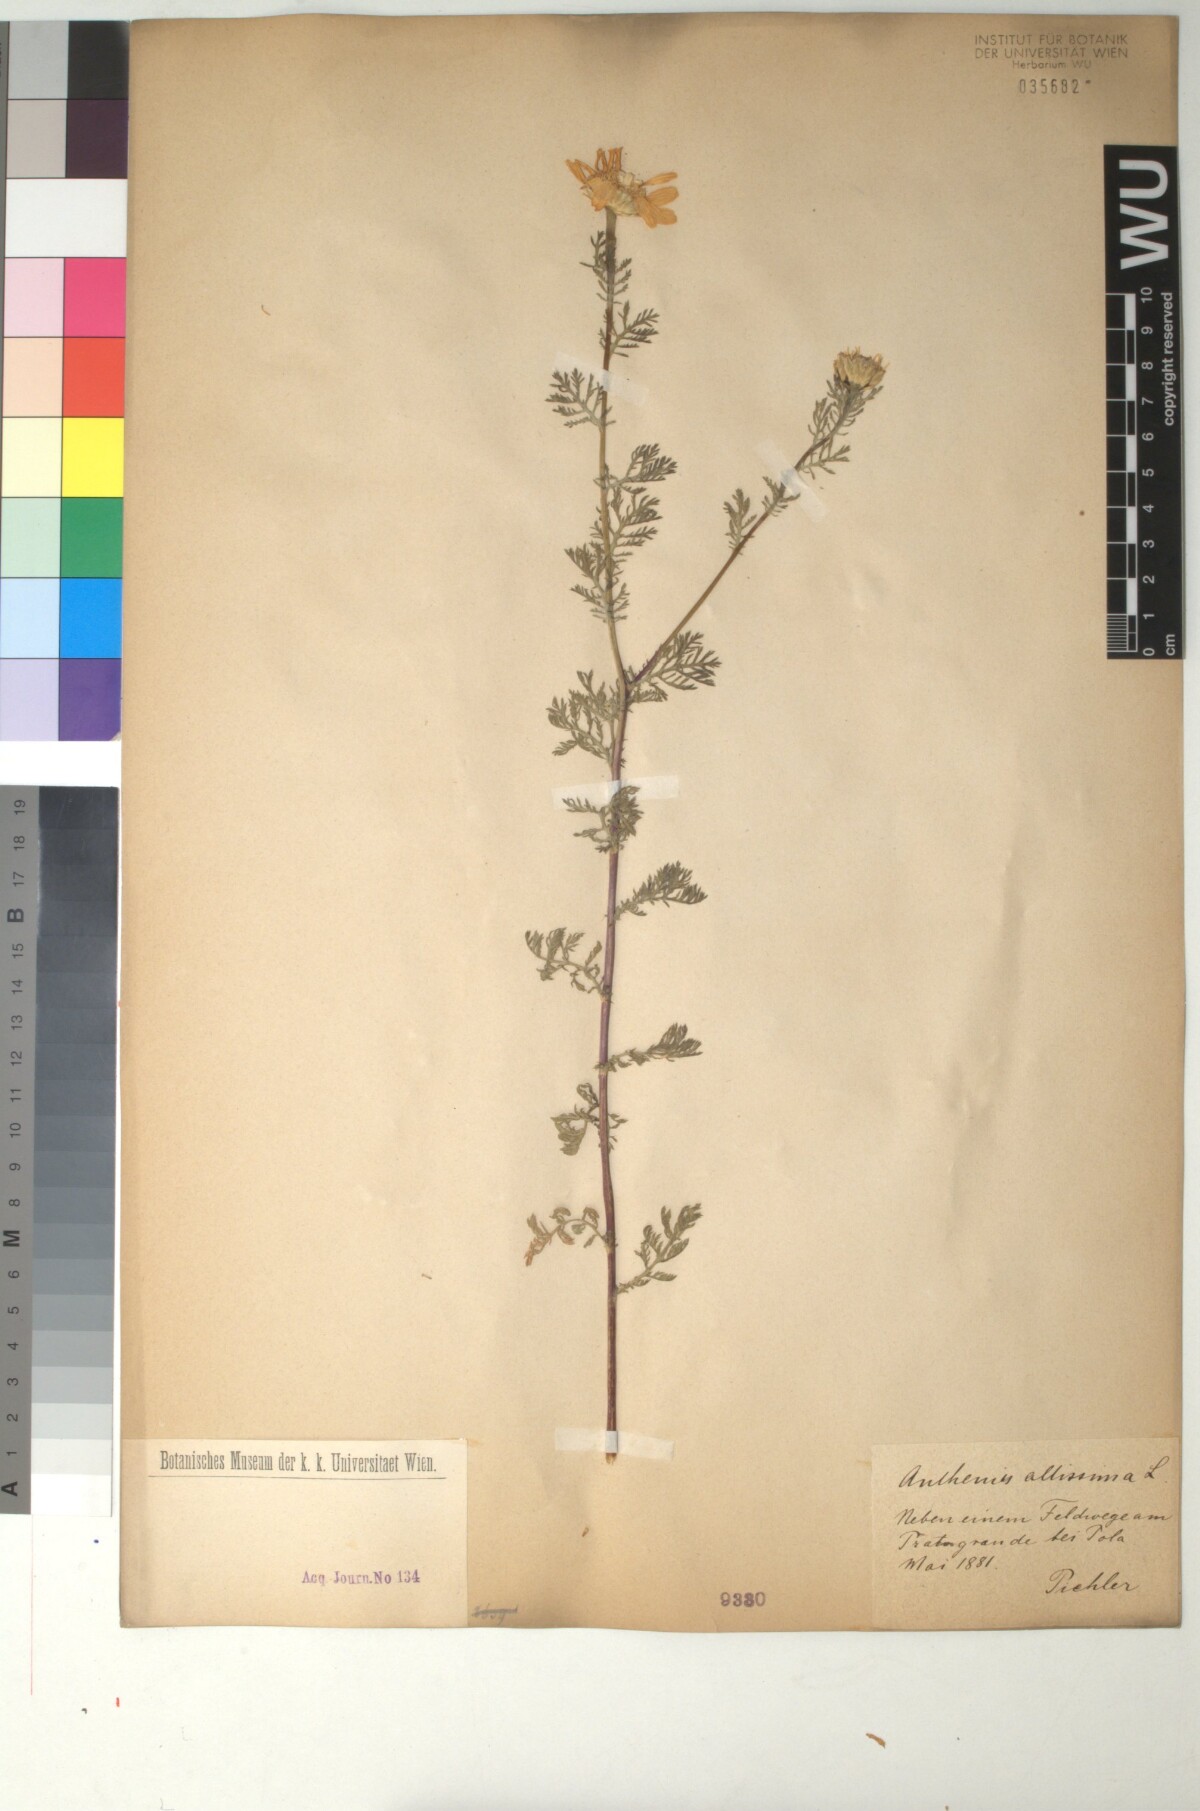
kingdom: Plantae
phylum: Tracheophyta
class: Magnoliopsida
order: Asterales
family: Asteraceae
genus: Cota
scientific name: Cota altissima
